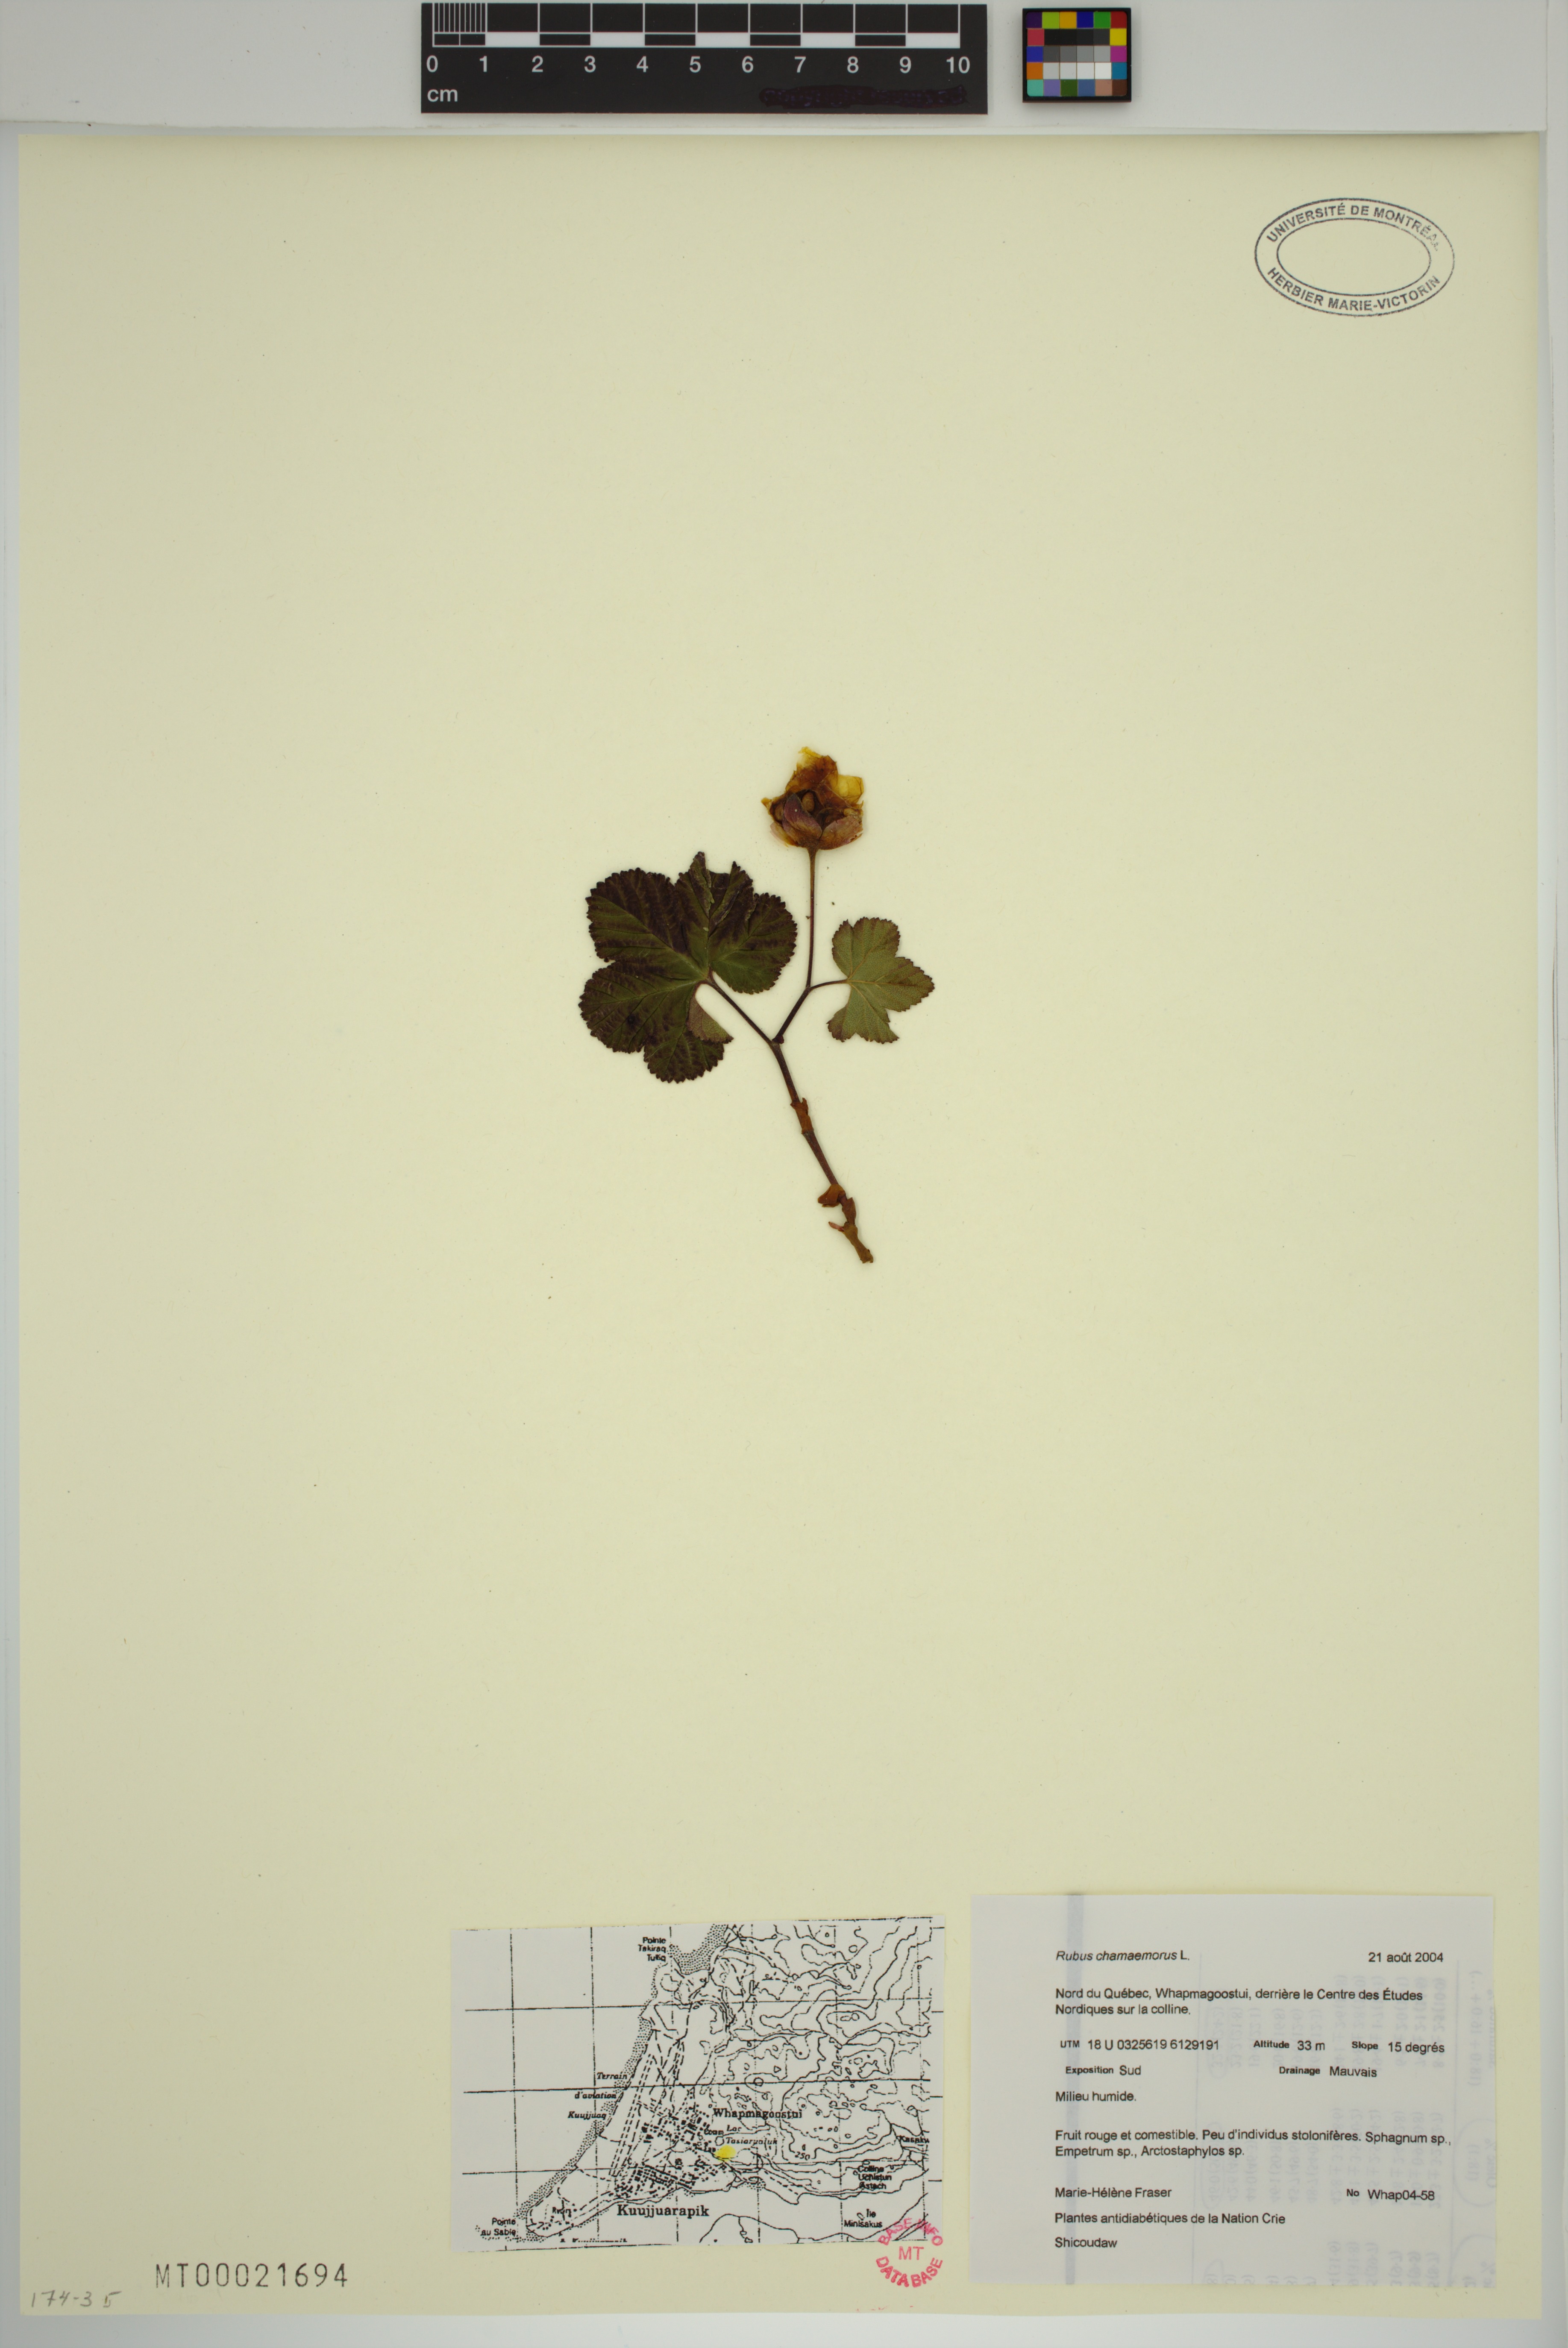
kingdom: Plantae
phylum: Tracheophyta
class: Magnoliopsida
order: Rosales
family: Rosaceae
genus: Rubus
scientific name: Rubus chamaemorus
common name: Cloudberry
